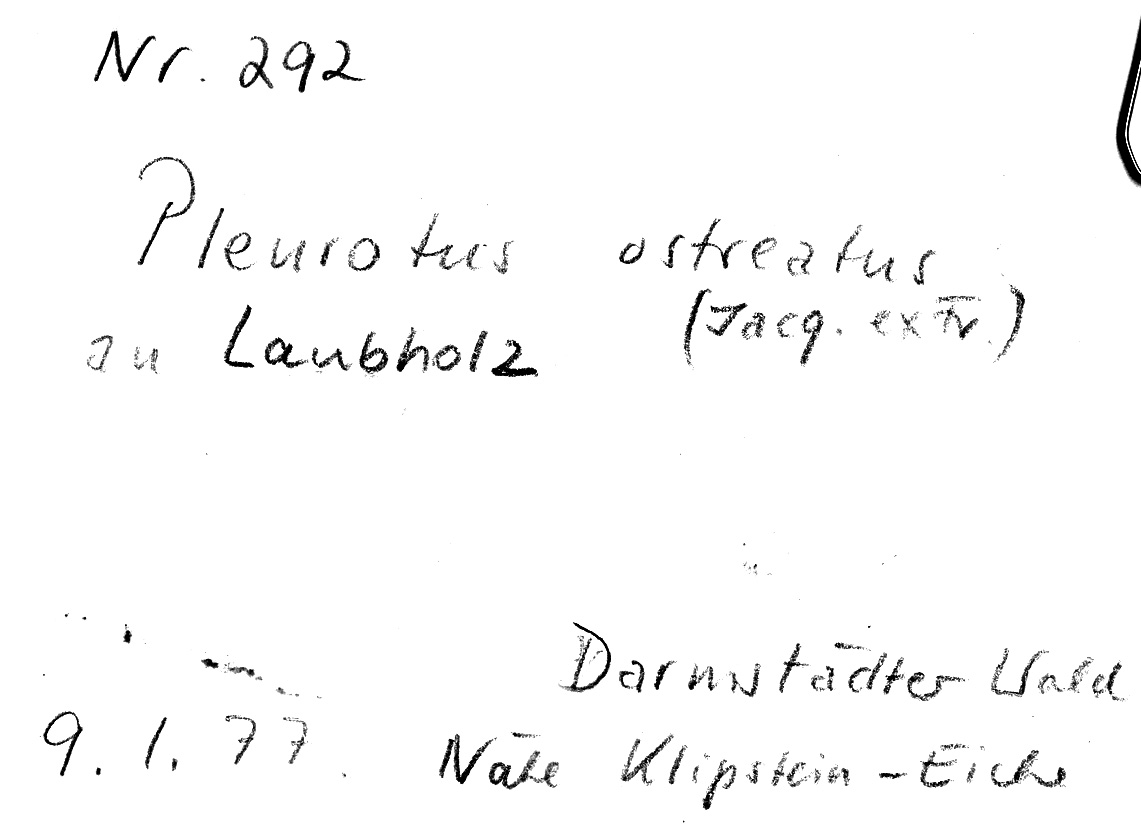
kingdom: Fungi
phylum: Basidiomycota
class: Agaricomycetes
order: Agaricales
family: Pleurotaceae
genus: Pleurotus
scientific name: Pleurotus ostreatus
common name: Oyster mushroom
